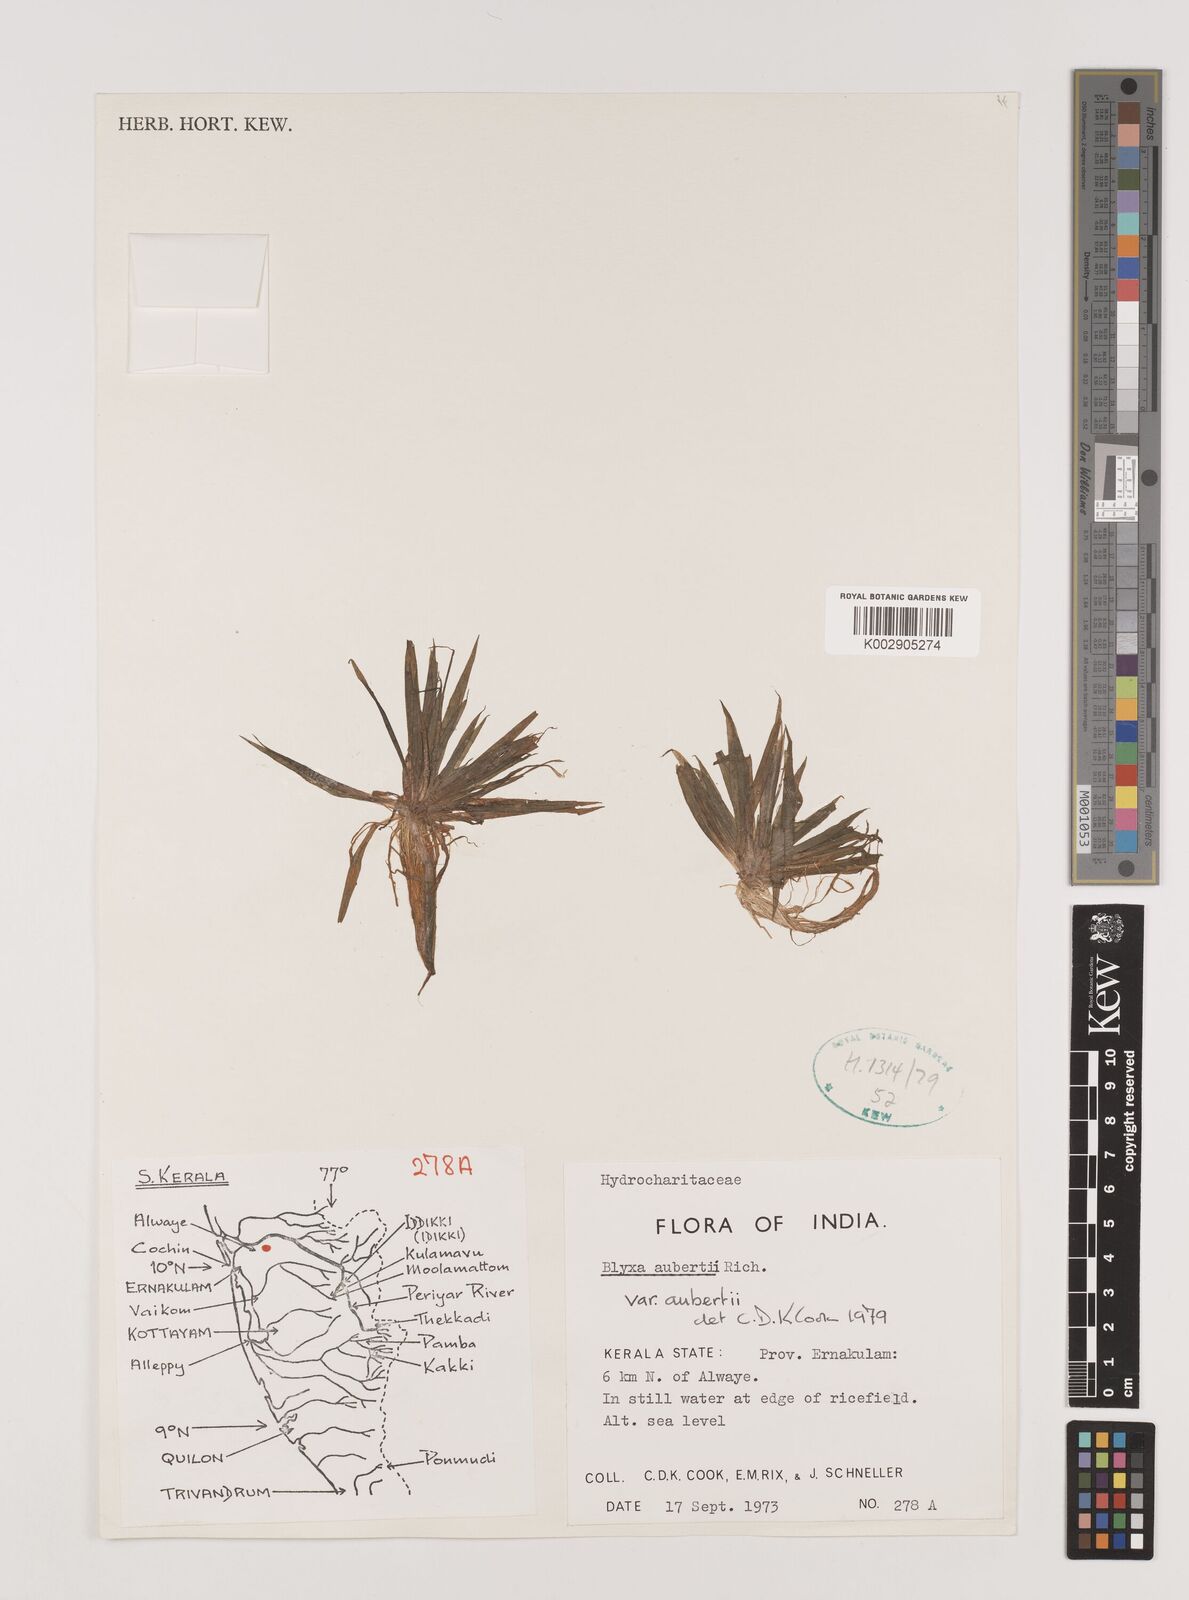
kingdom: Plantae
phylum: Tracheophyta
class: Liliopsida
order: Alismatales
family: Hydrocharitaceae
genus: Blyxa
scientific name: Blyxa aubertii
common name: Roundfruit blyxa
